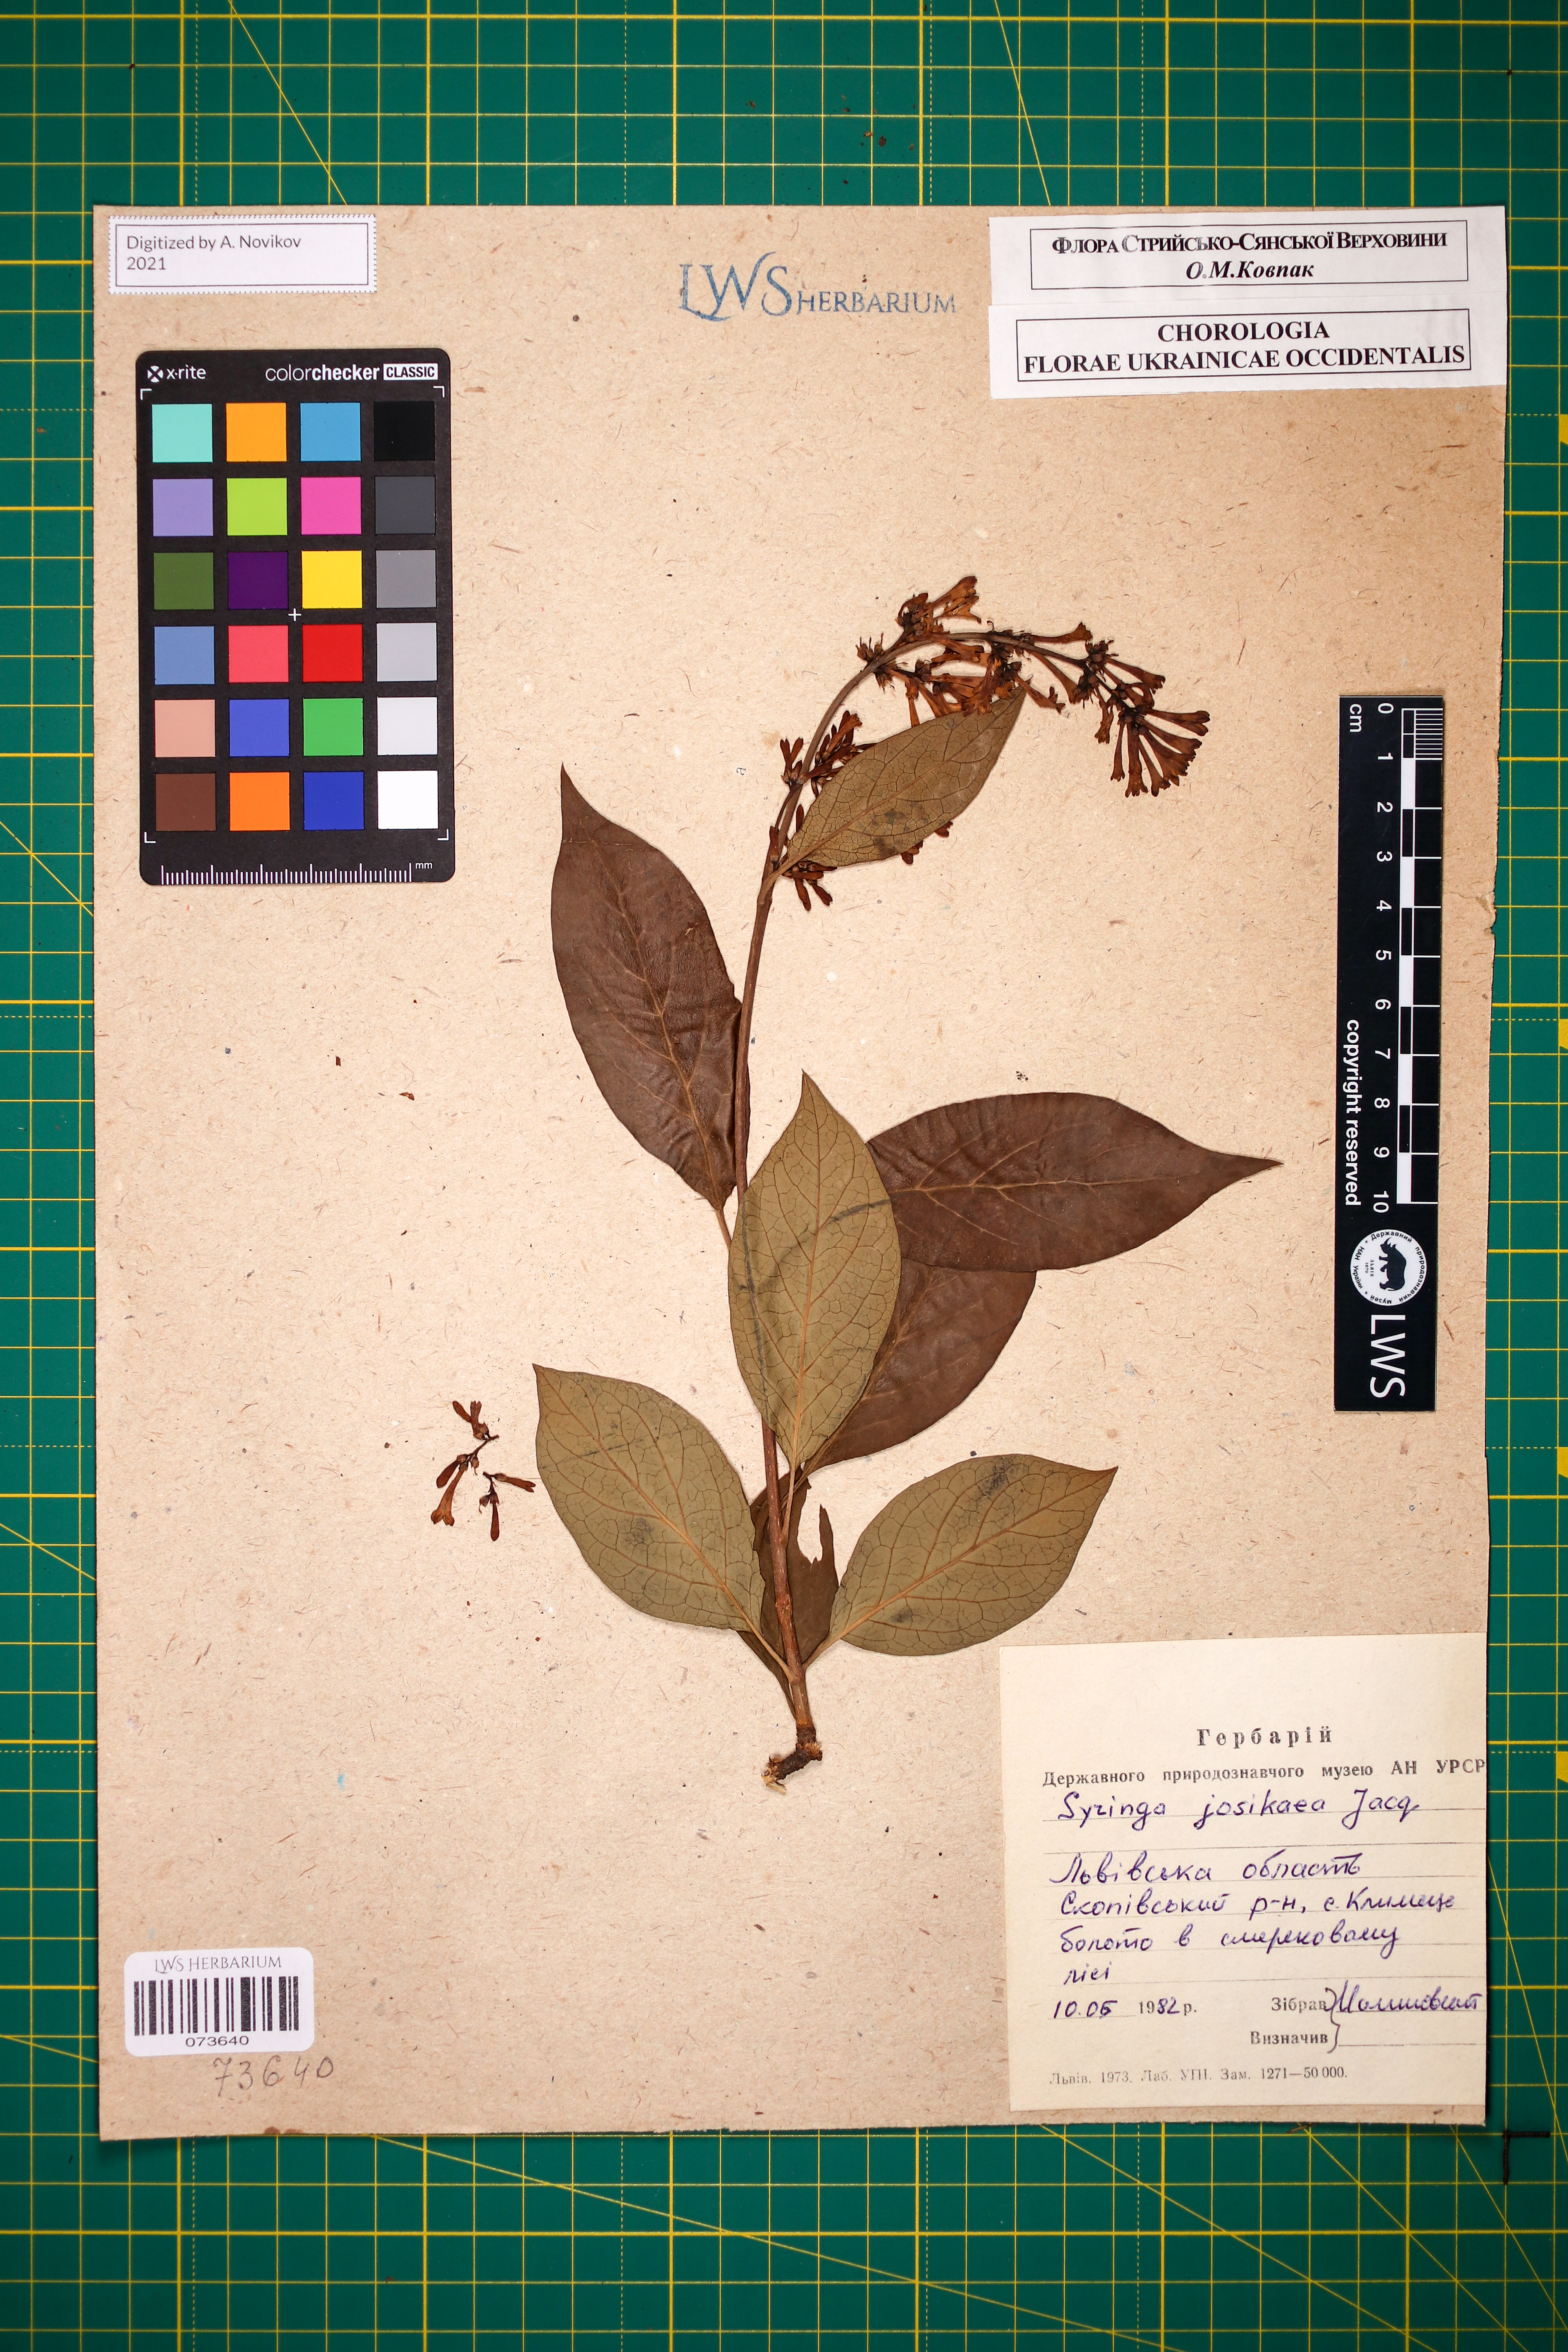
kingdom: Plantae
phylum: Tracheophyta
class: Magnoliopsida
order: Lamiales
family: Oleaceae
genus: Syringa
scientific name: Syringa josikaea
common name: Hungarian lilac
